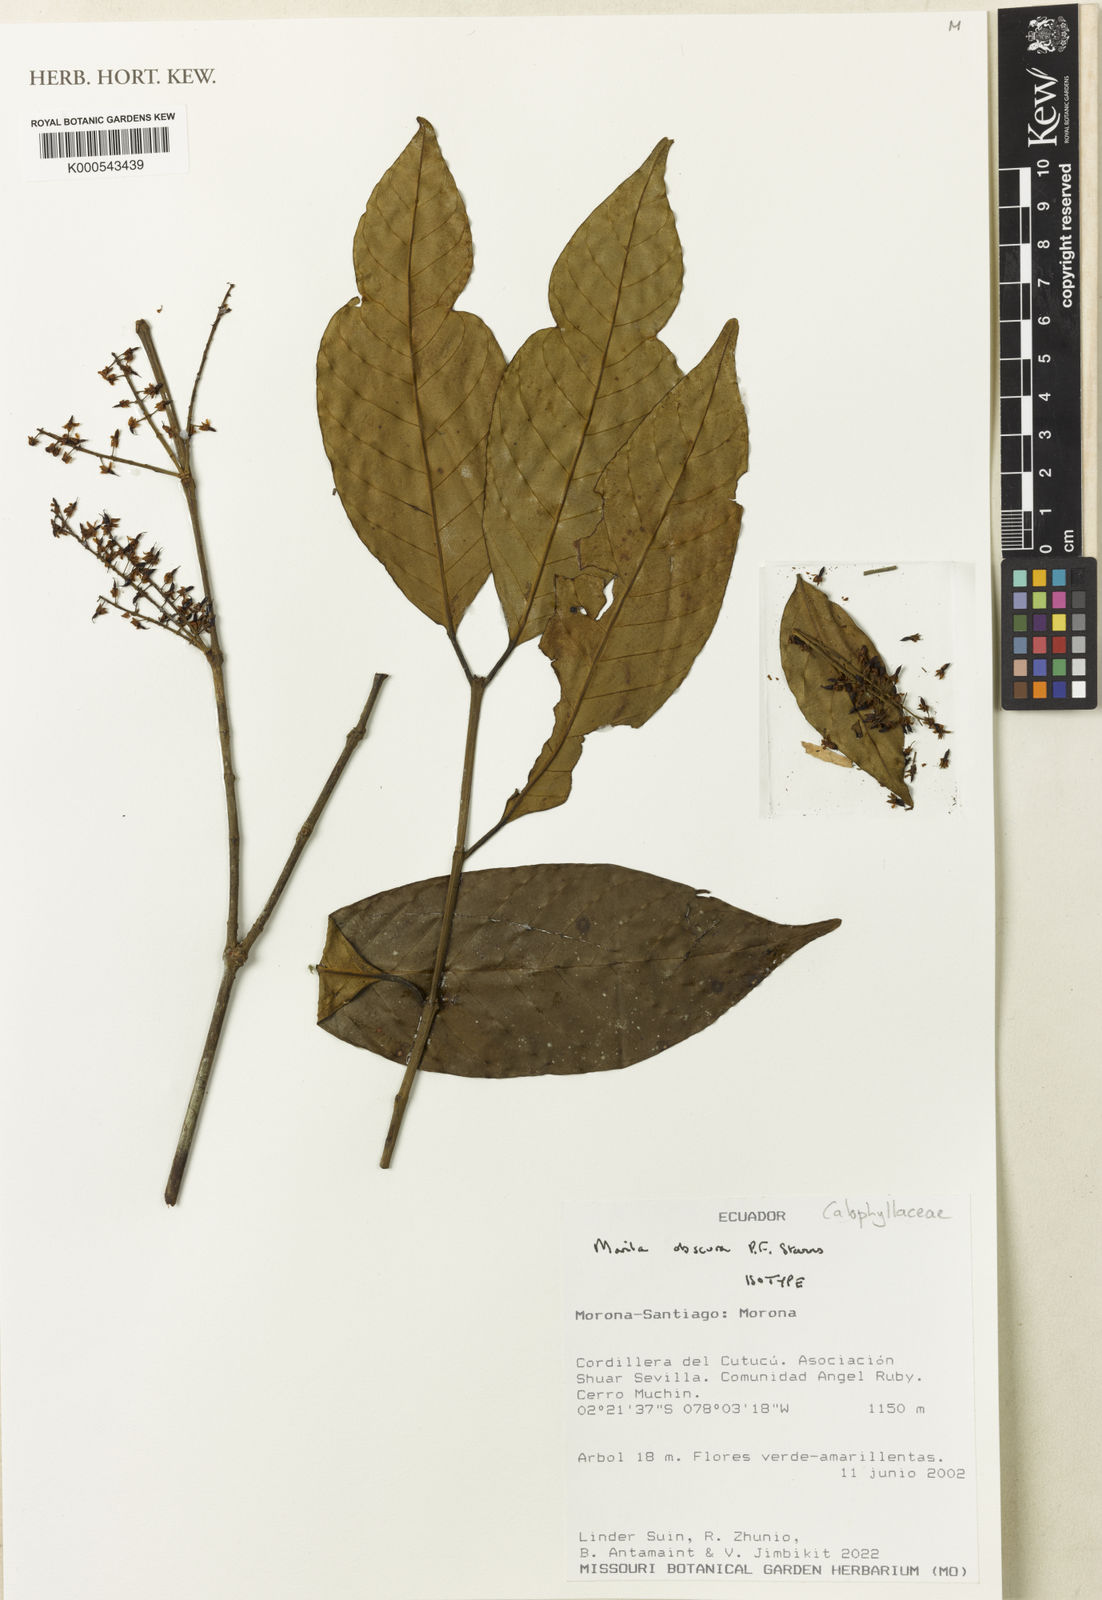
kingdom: Plantae
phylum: Tracheophyta
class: Magnoliopsida
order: Malpighiales
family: Calophyllaceae
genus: Marila
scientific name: Marila
